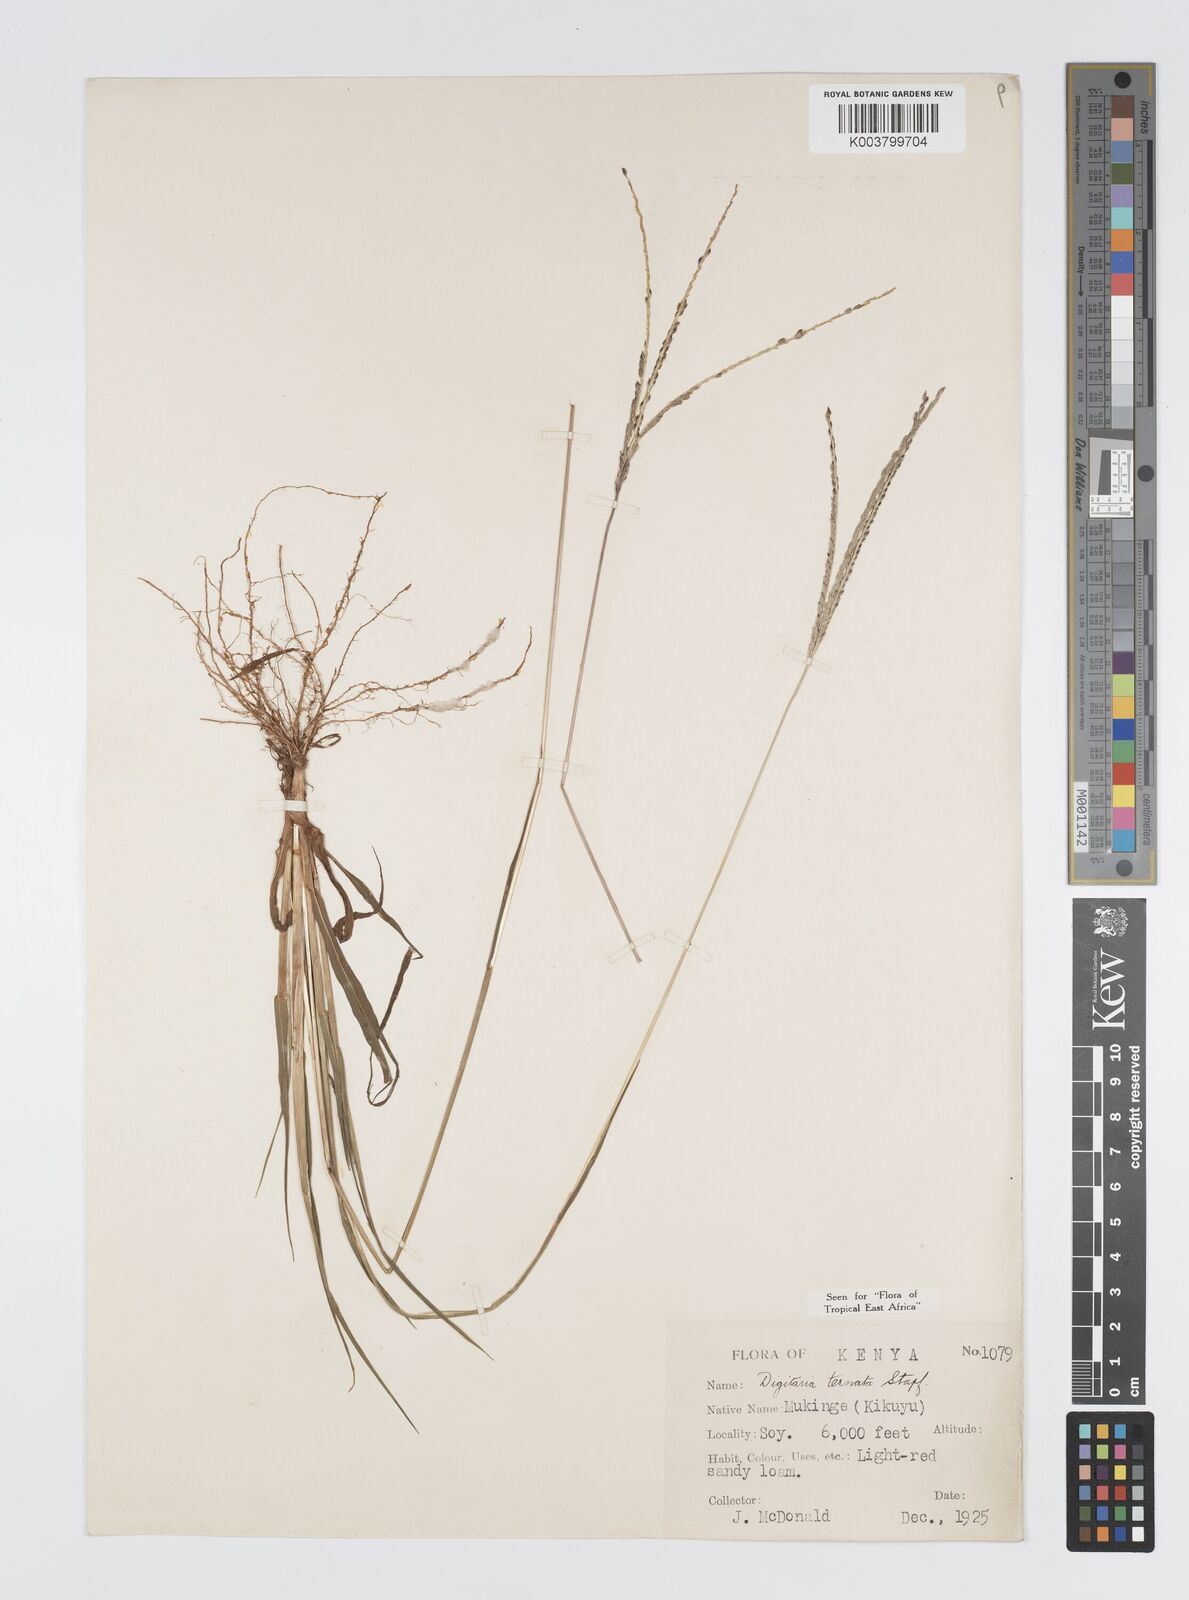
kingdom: Plantae
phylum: Tracheophyta
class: Liliopsida
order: Poales
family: Poaceae
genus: Digitaria
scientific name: Digitaria ternata
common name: Blackseed crabgrass
